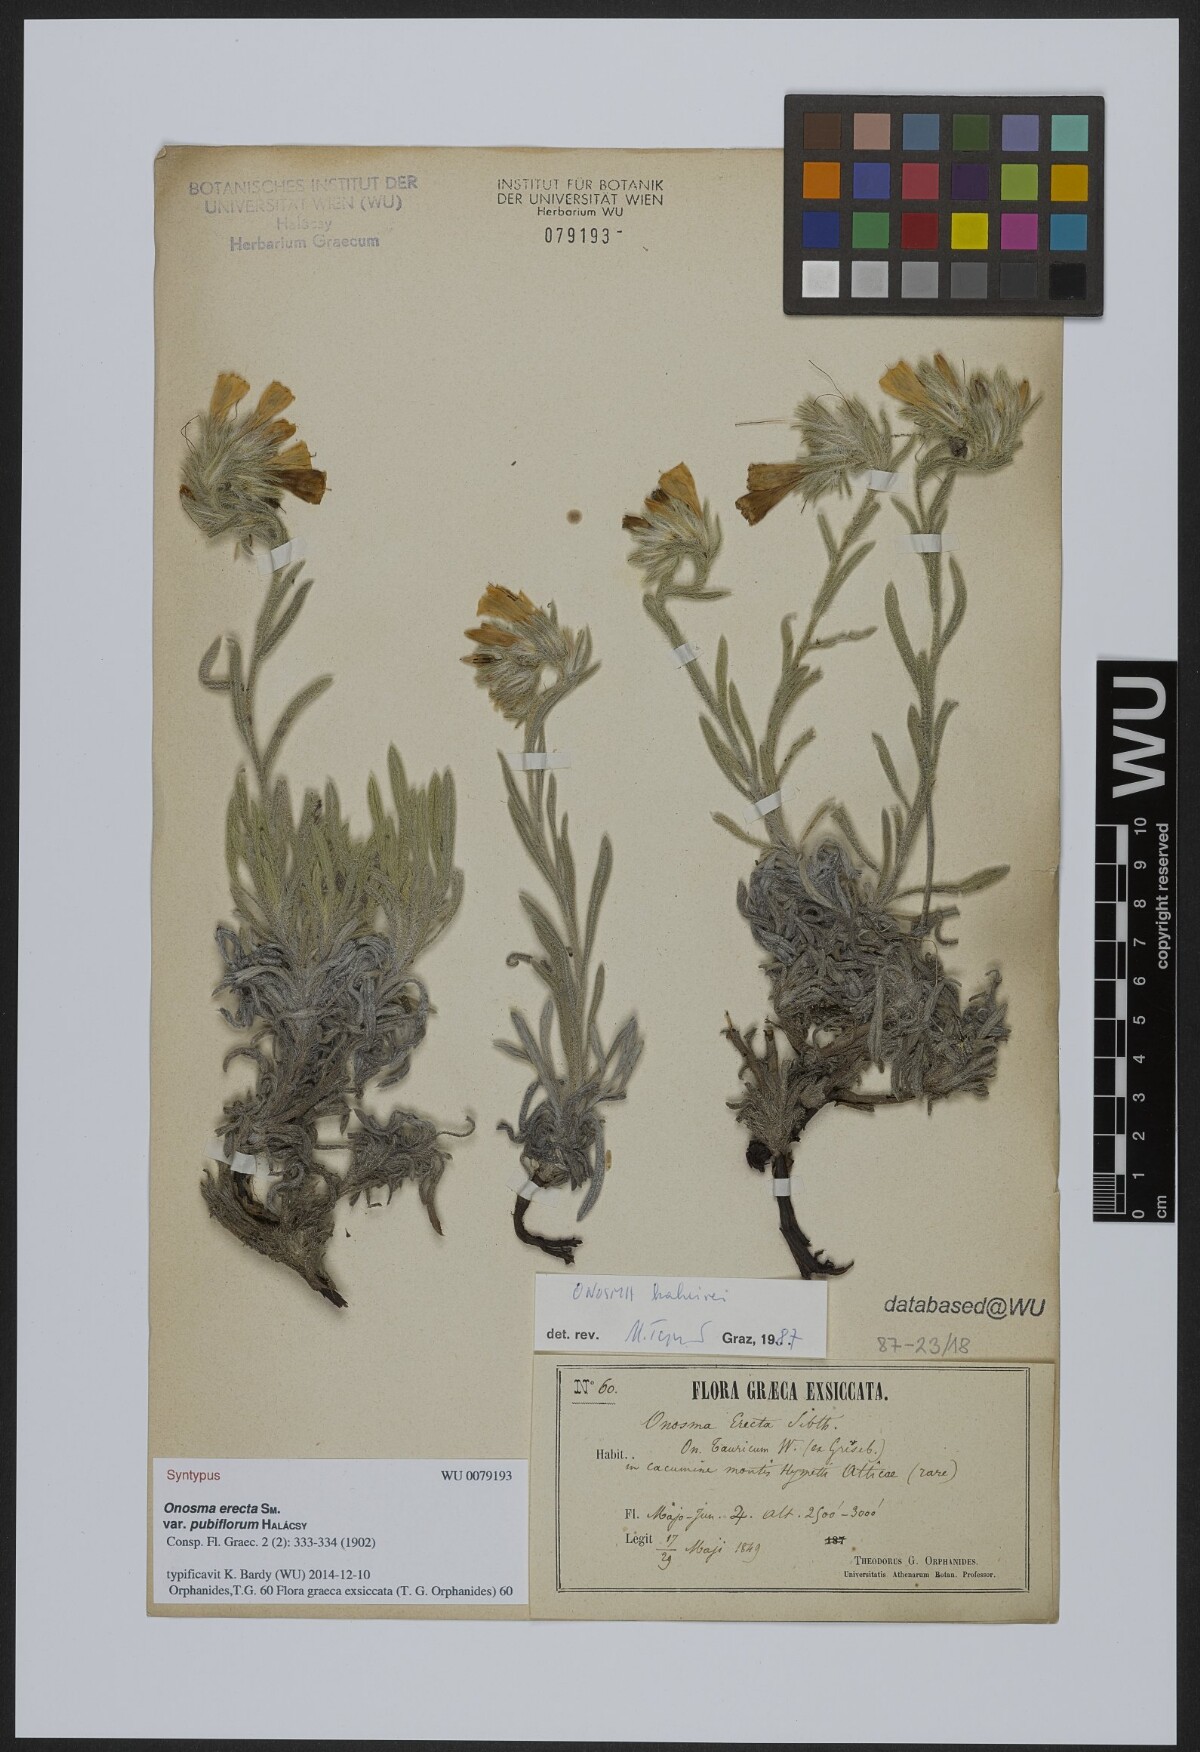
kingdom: Plantae
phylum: Tracheophyta
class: Magnoliopsida
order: Boraginales
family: Boraginaceae
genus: Onosma
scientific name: Onosma kaheirei
